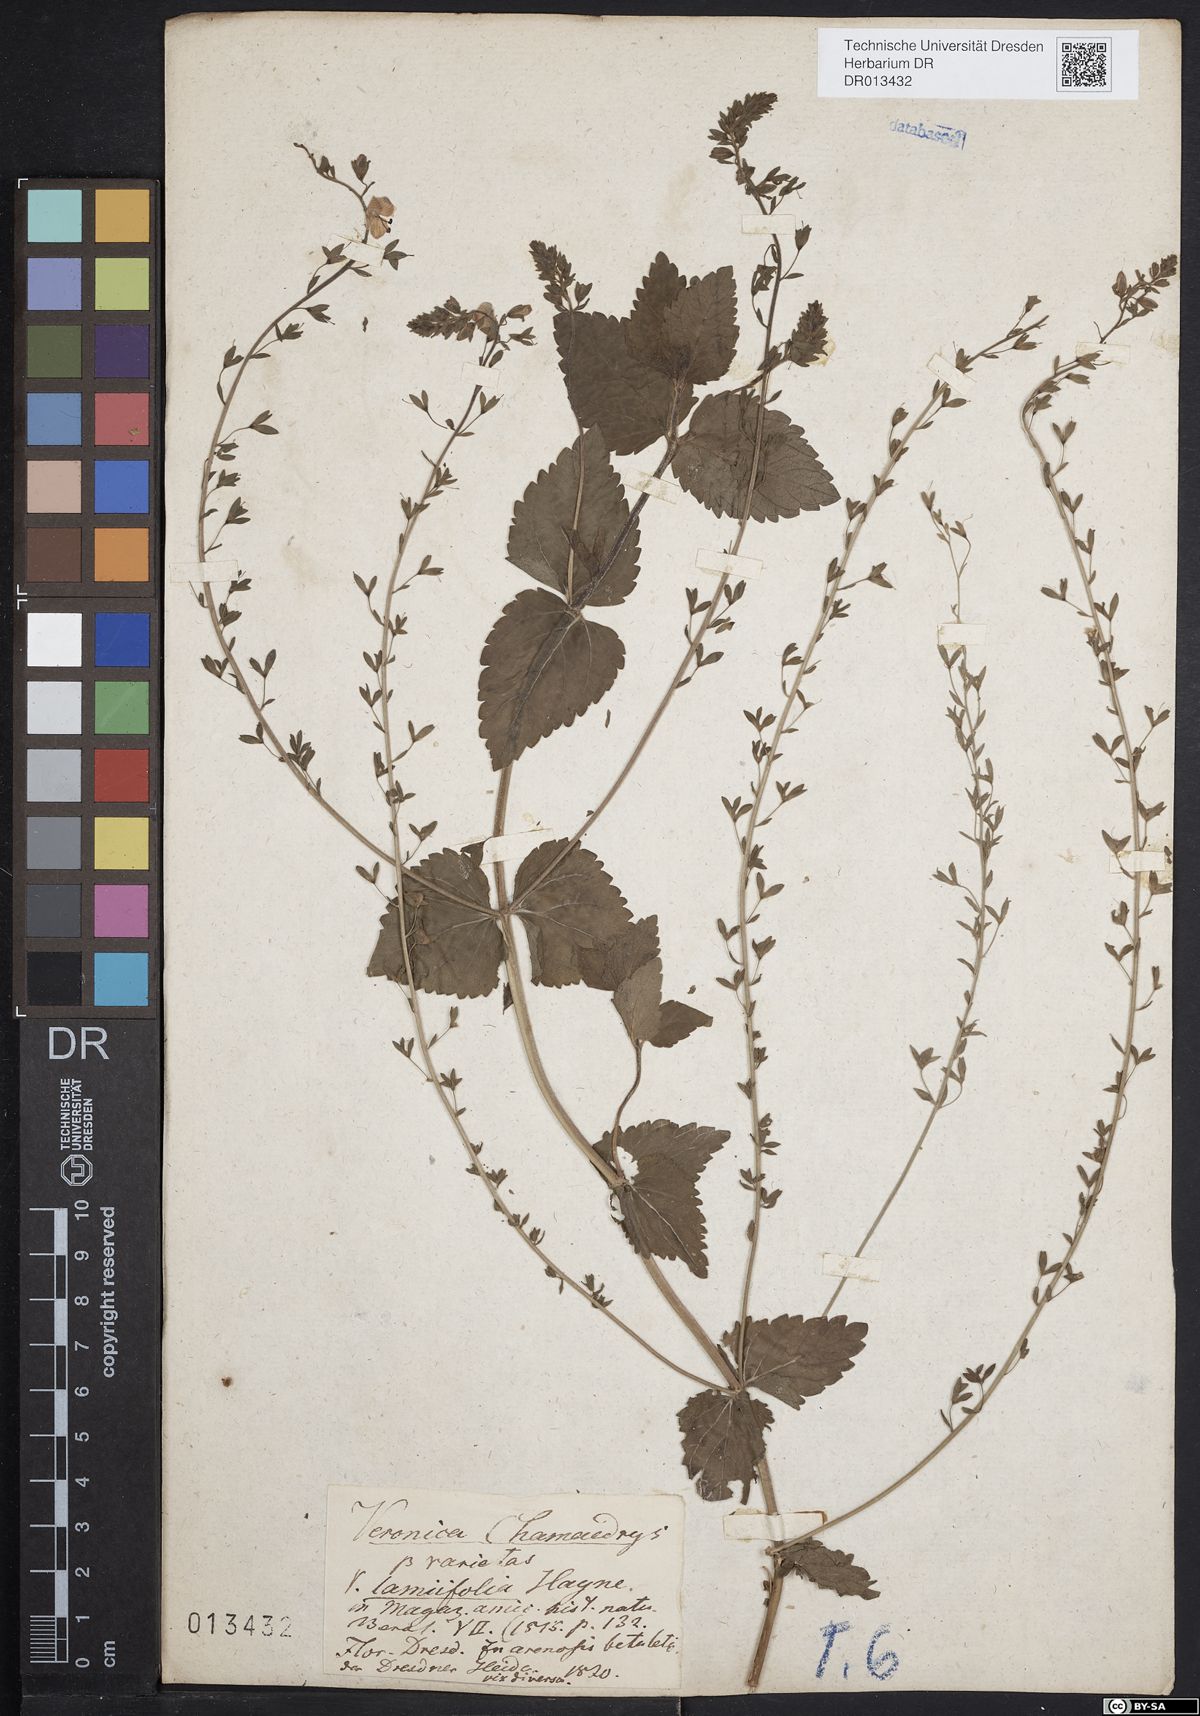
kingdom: Plantae
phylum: Tracheophyta
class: Magnoliopsida
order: Lamiales
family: Plantaginaceae
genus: Veronica
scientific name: Veronica chamaedrys
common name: Germander speedwell
